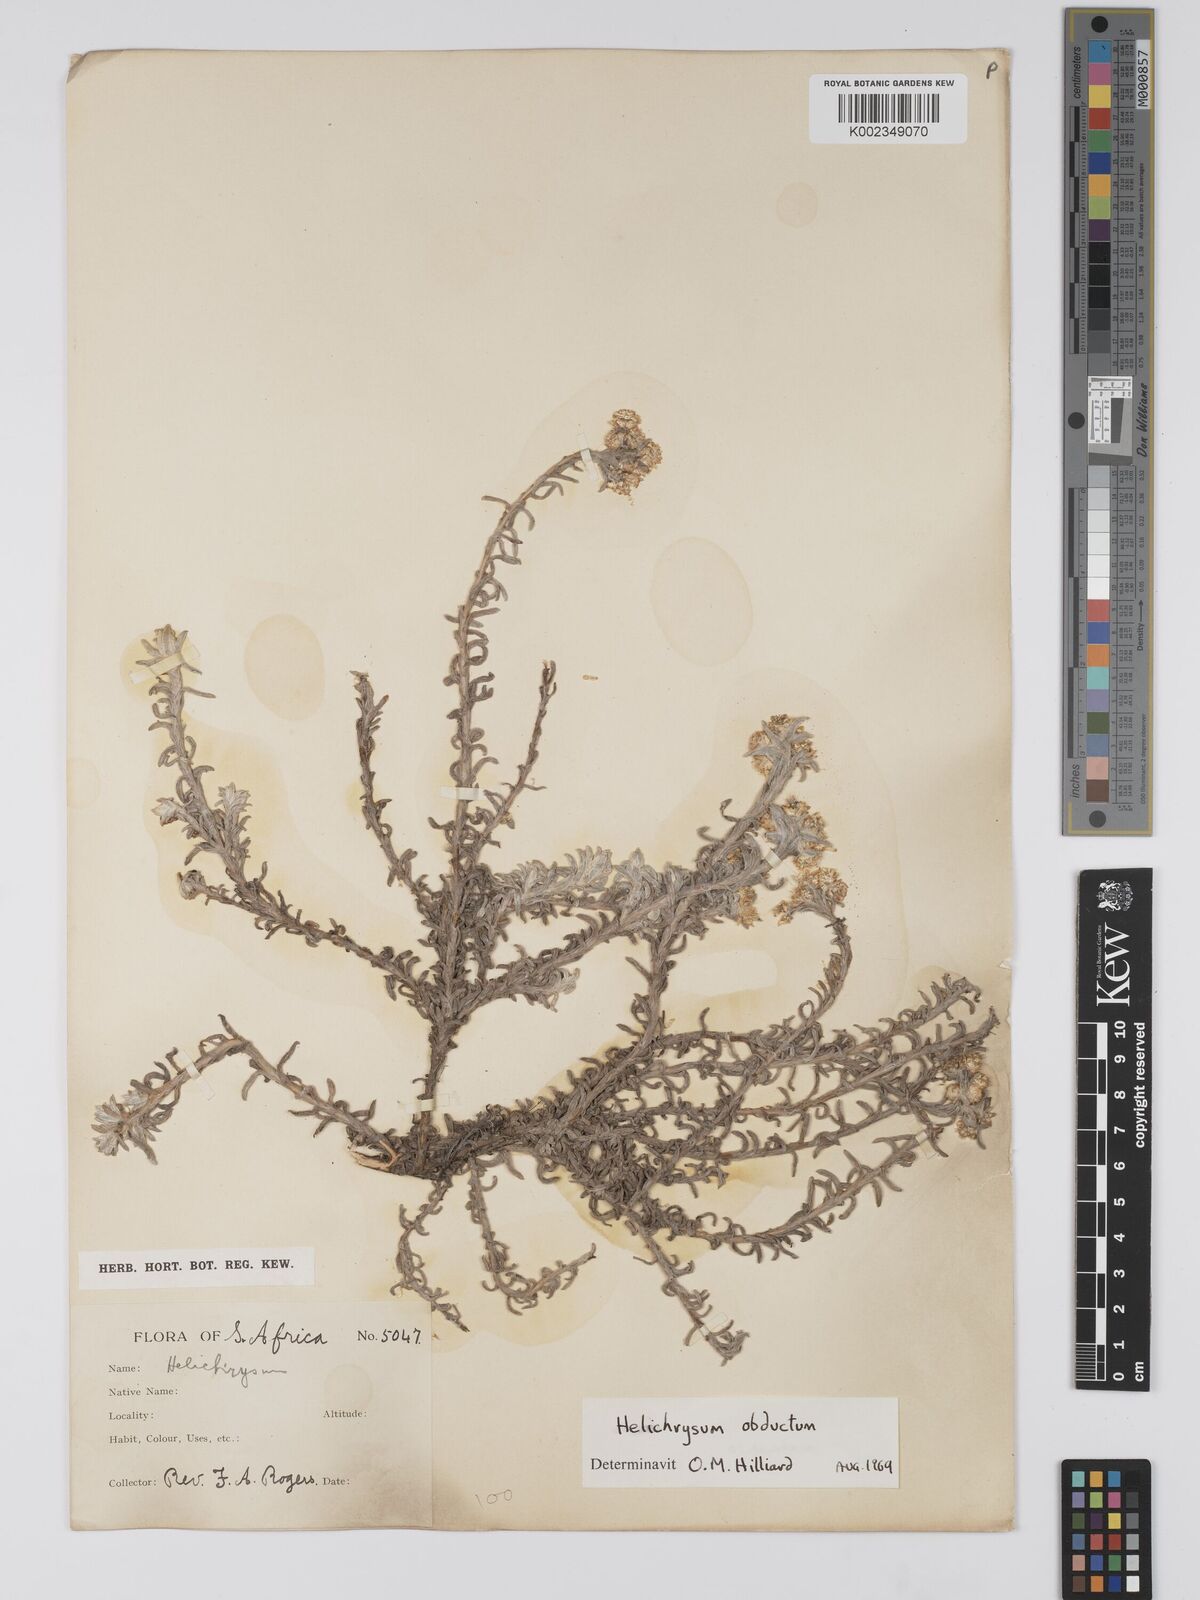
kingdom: Plantae
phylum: Tracheophyta
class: Magnoliopsida
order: Asterales
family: Asteraceae
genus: Helichrysum
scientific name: Helichrysum obductum
